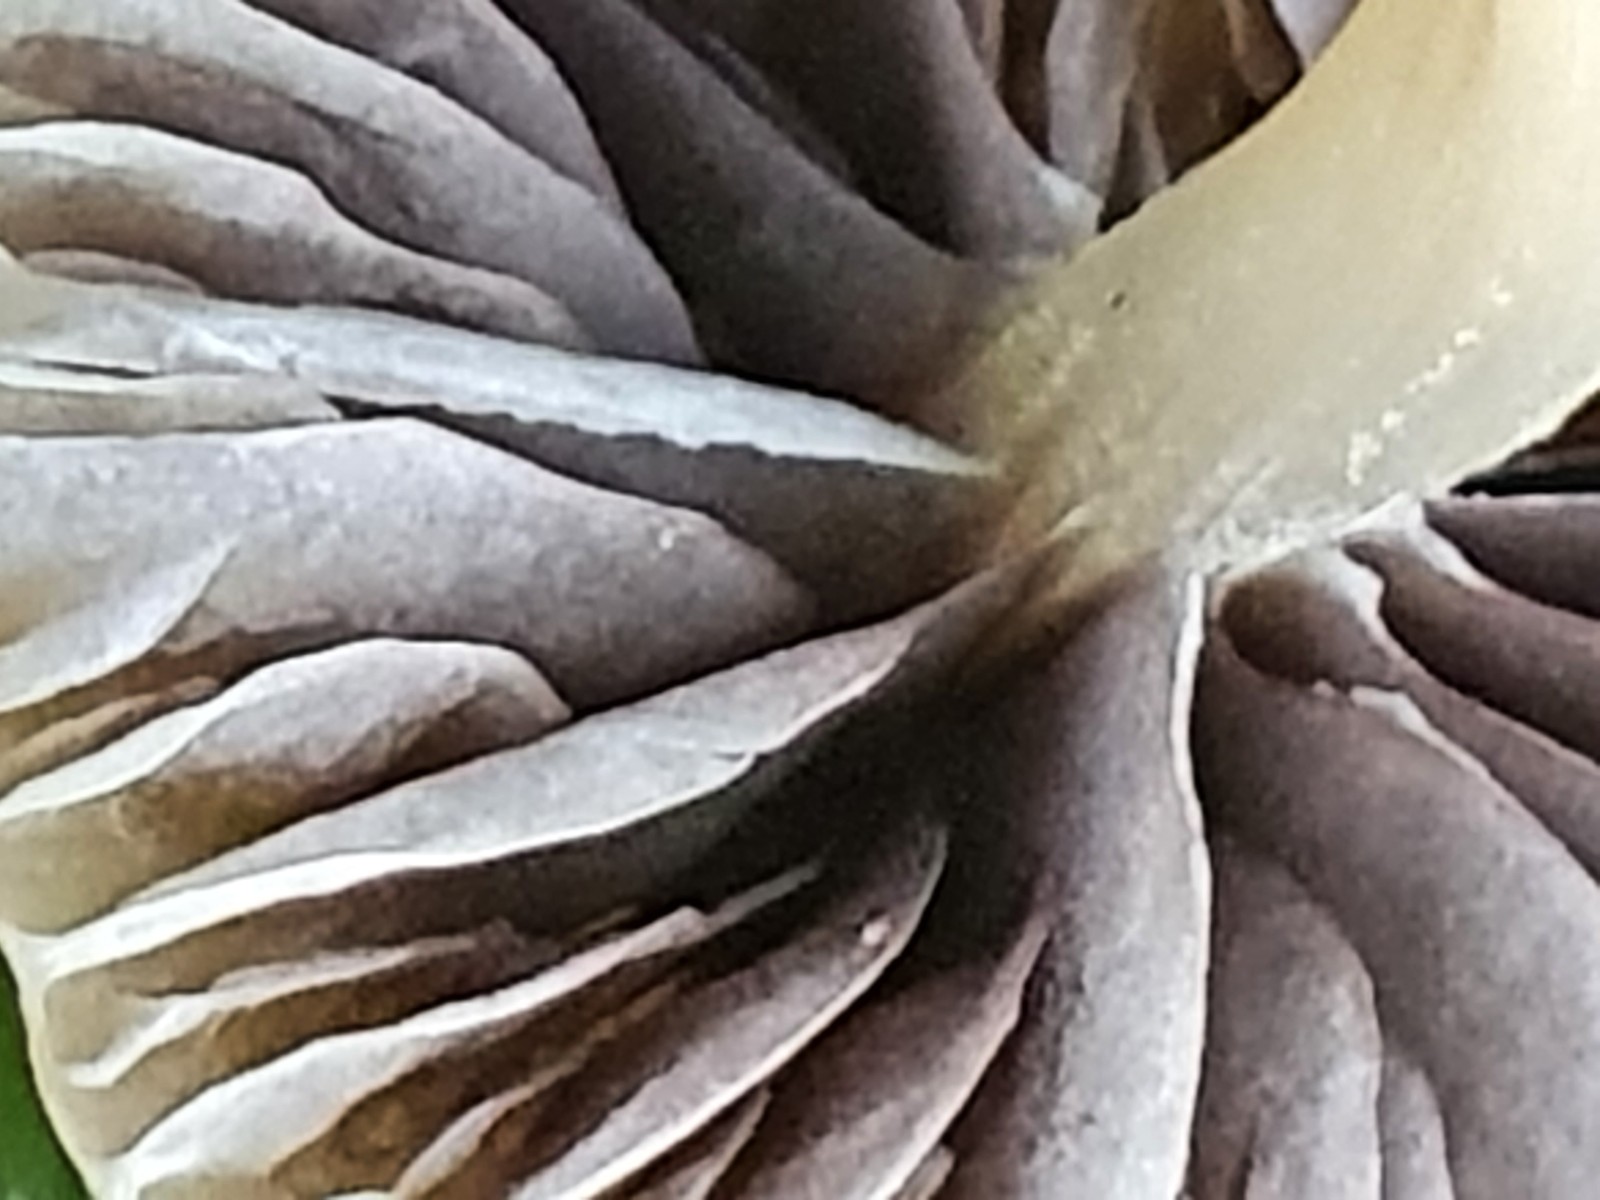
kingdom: Fungi
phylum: Basidiomycota
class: Agaricomycetes
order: Agaricales
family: Psathyrellaceae
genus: Psathyrella
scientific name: Psathyrella
